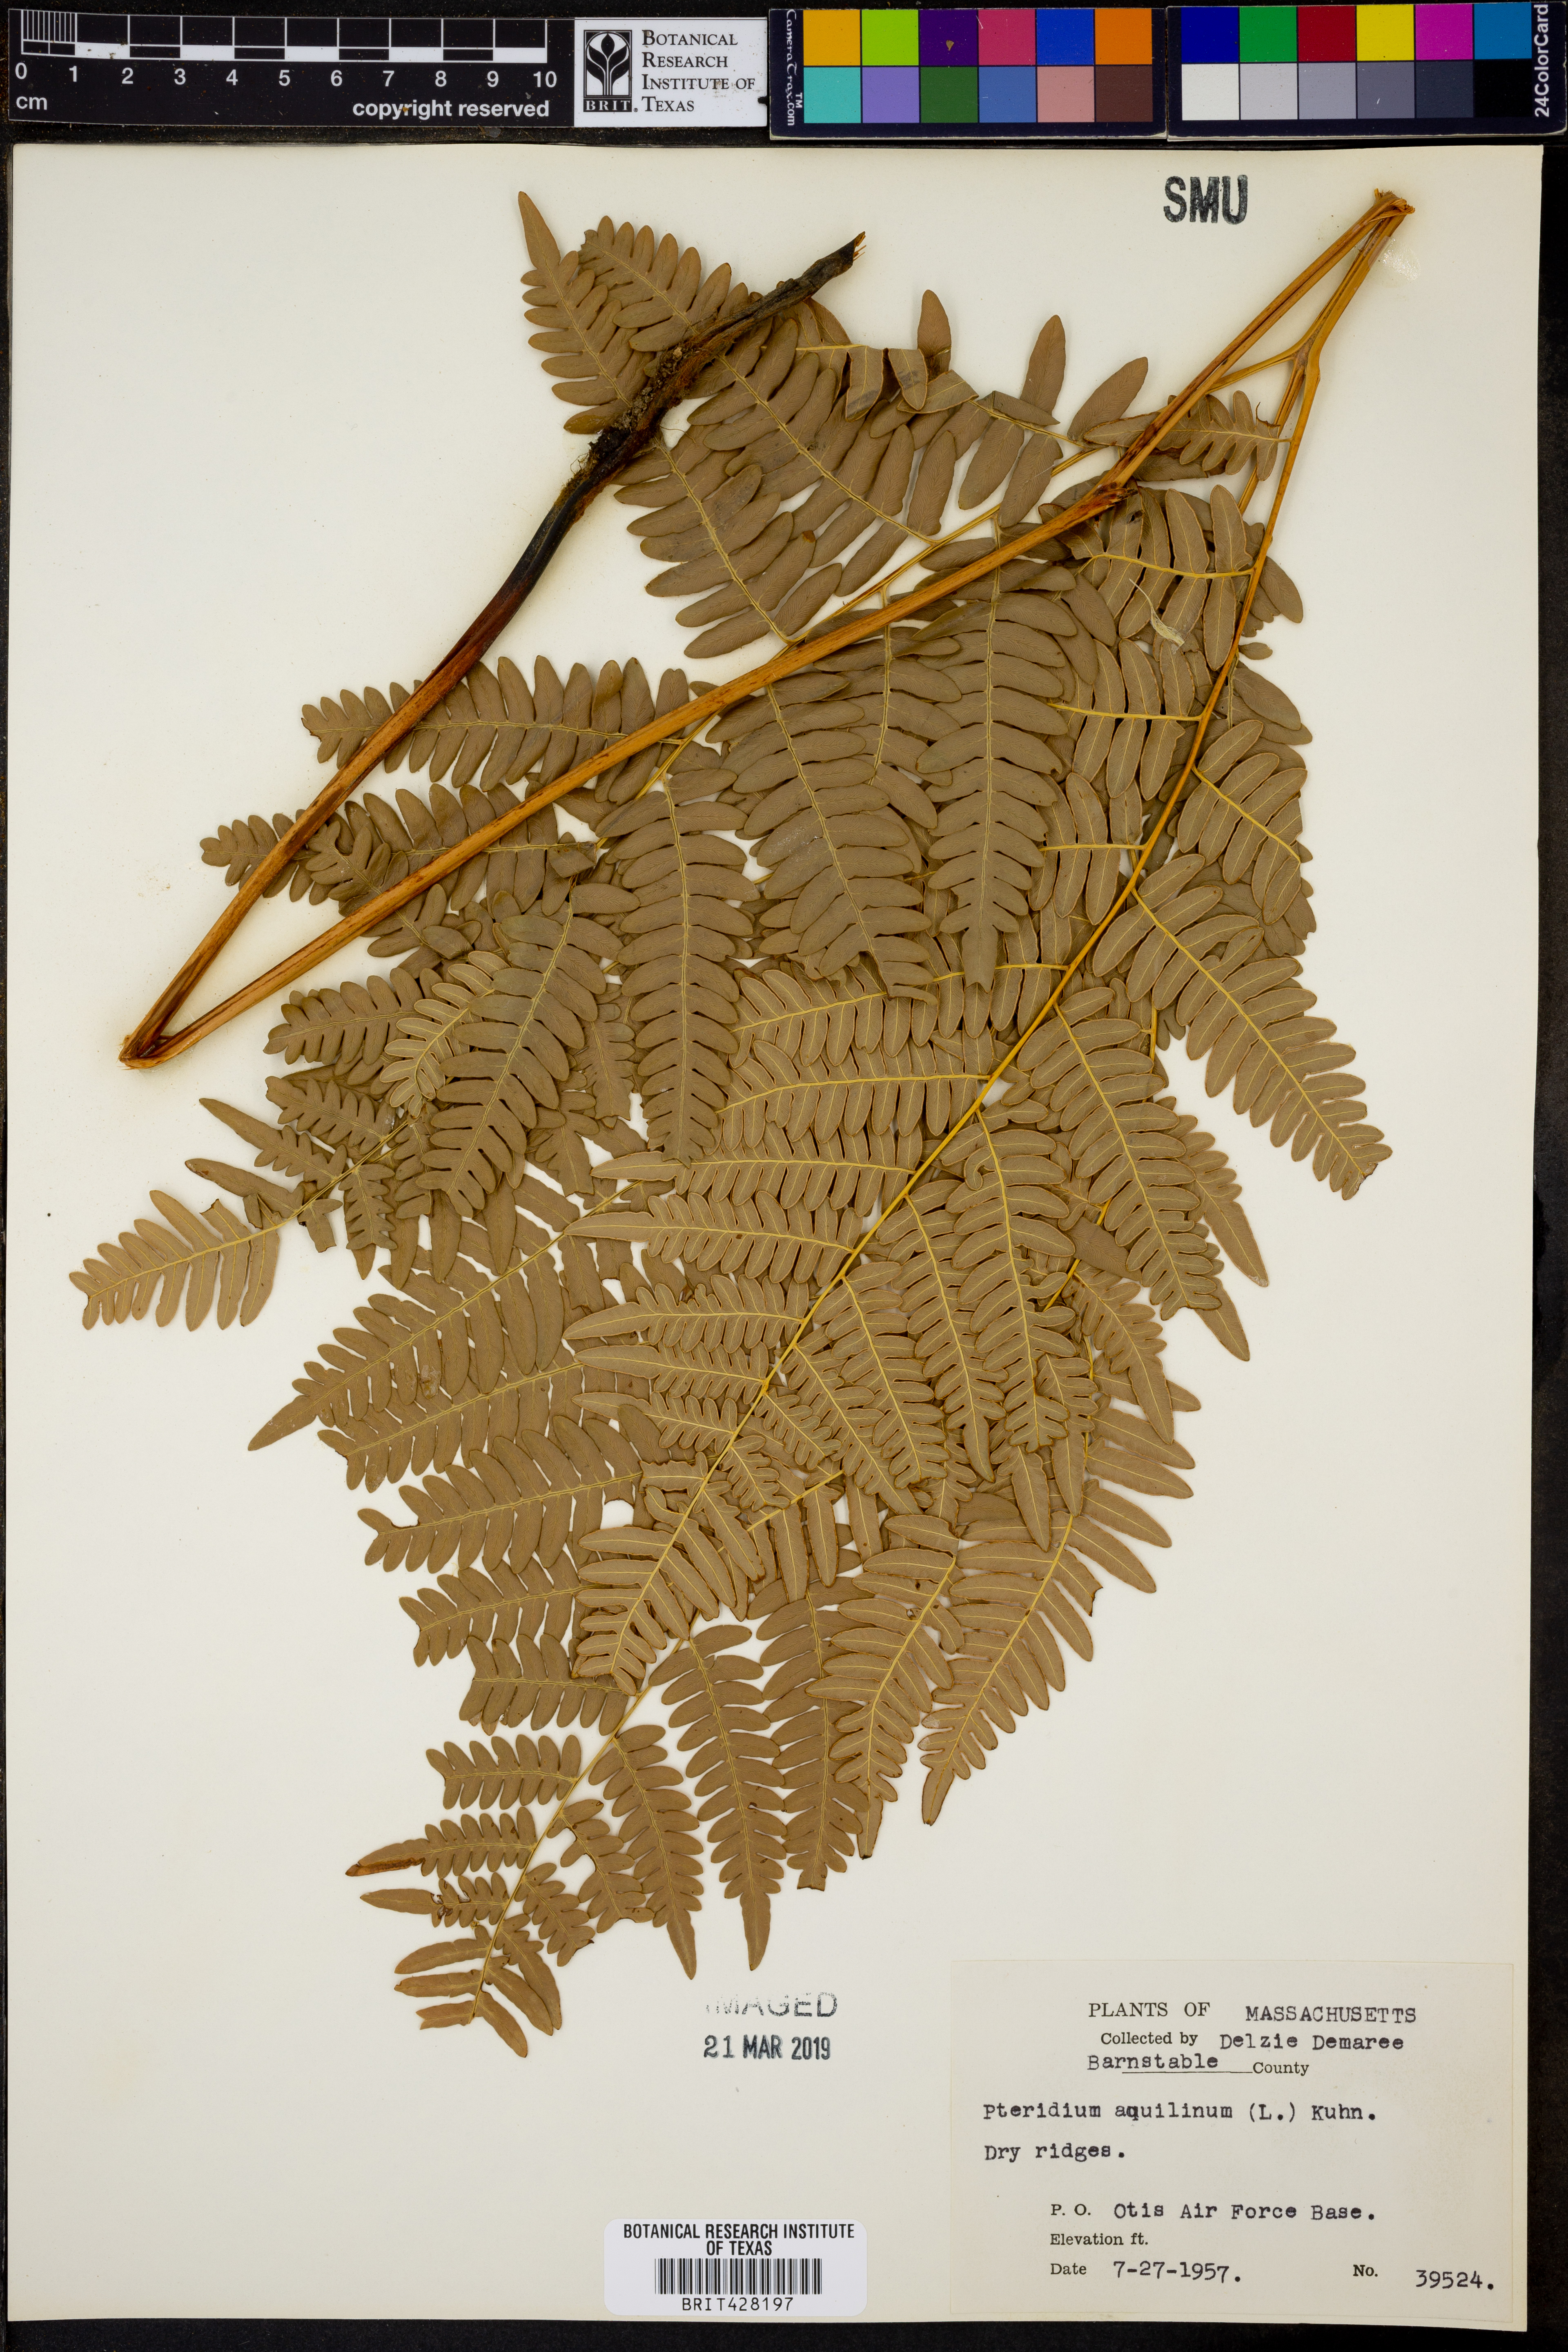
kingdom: Plantae
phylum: Tracheophyta
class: Polypodiopsida
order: Polypodiales
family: Dennstaedtiaceae
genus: Pteridium
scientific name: Pteridium aquilinum
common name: Bracken
